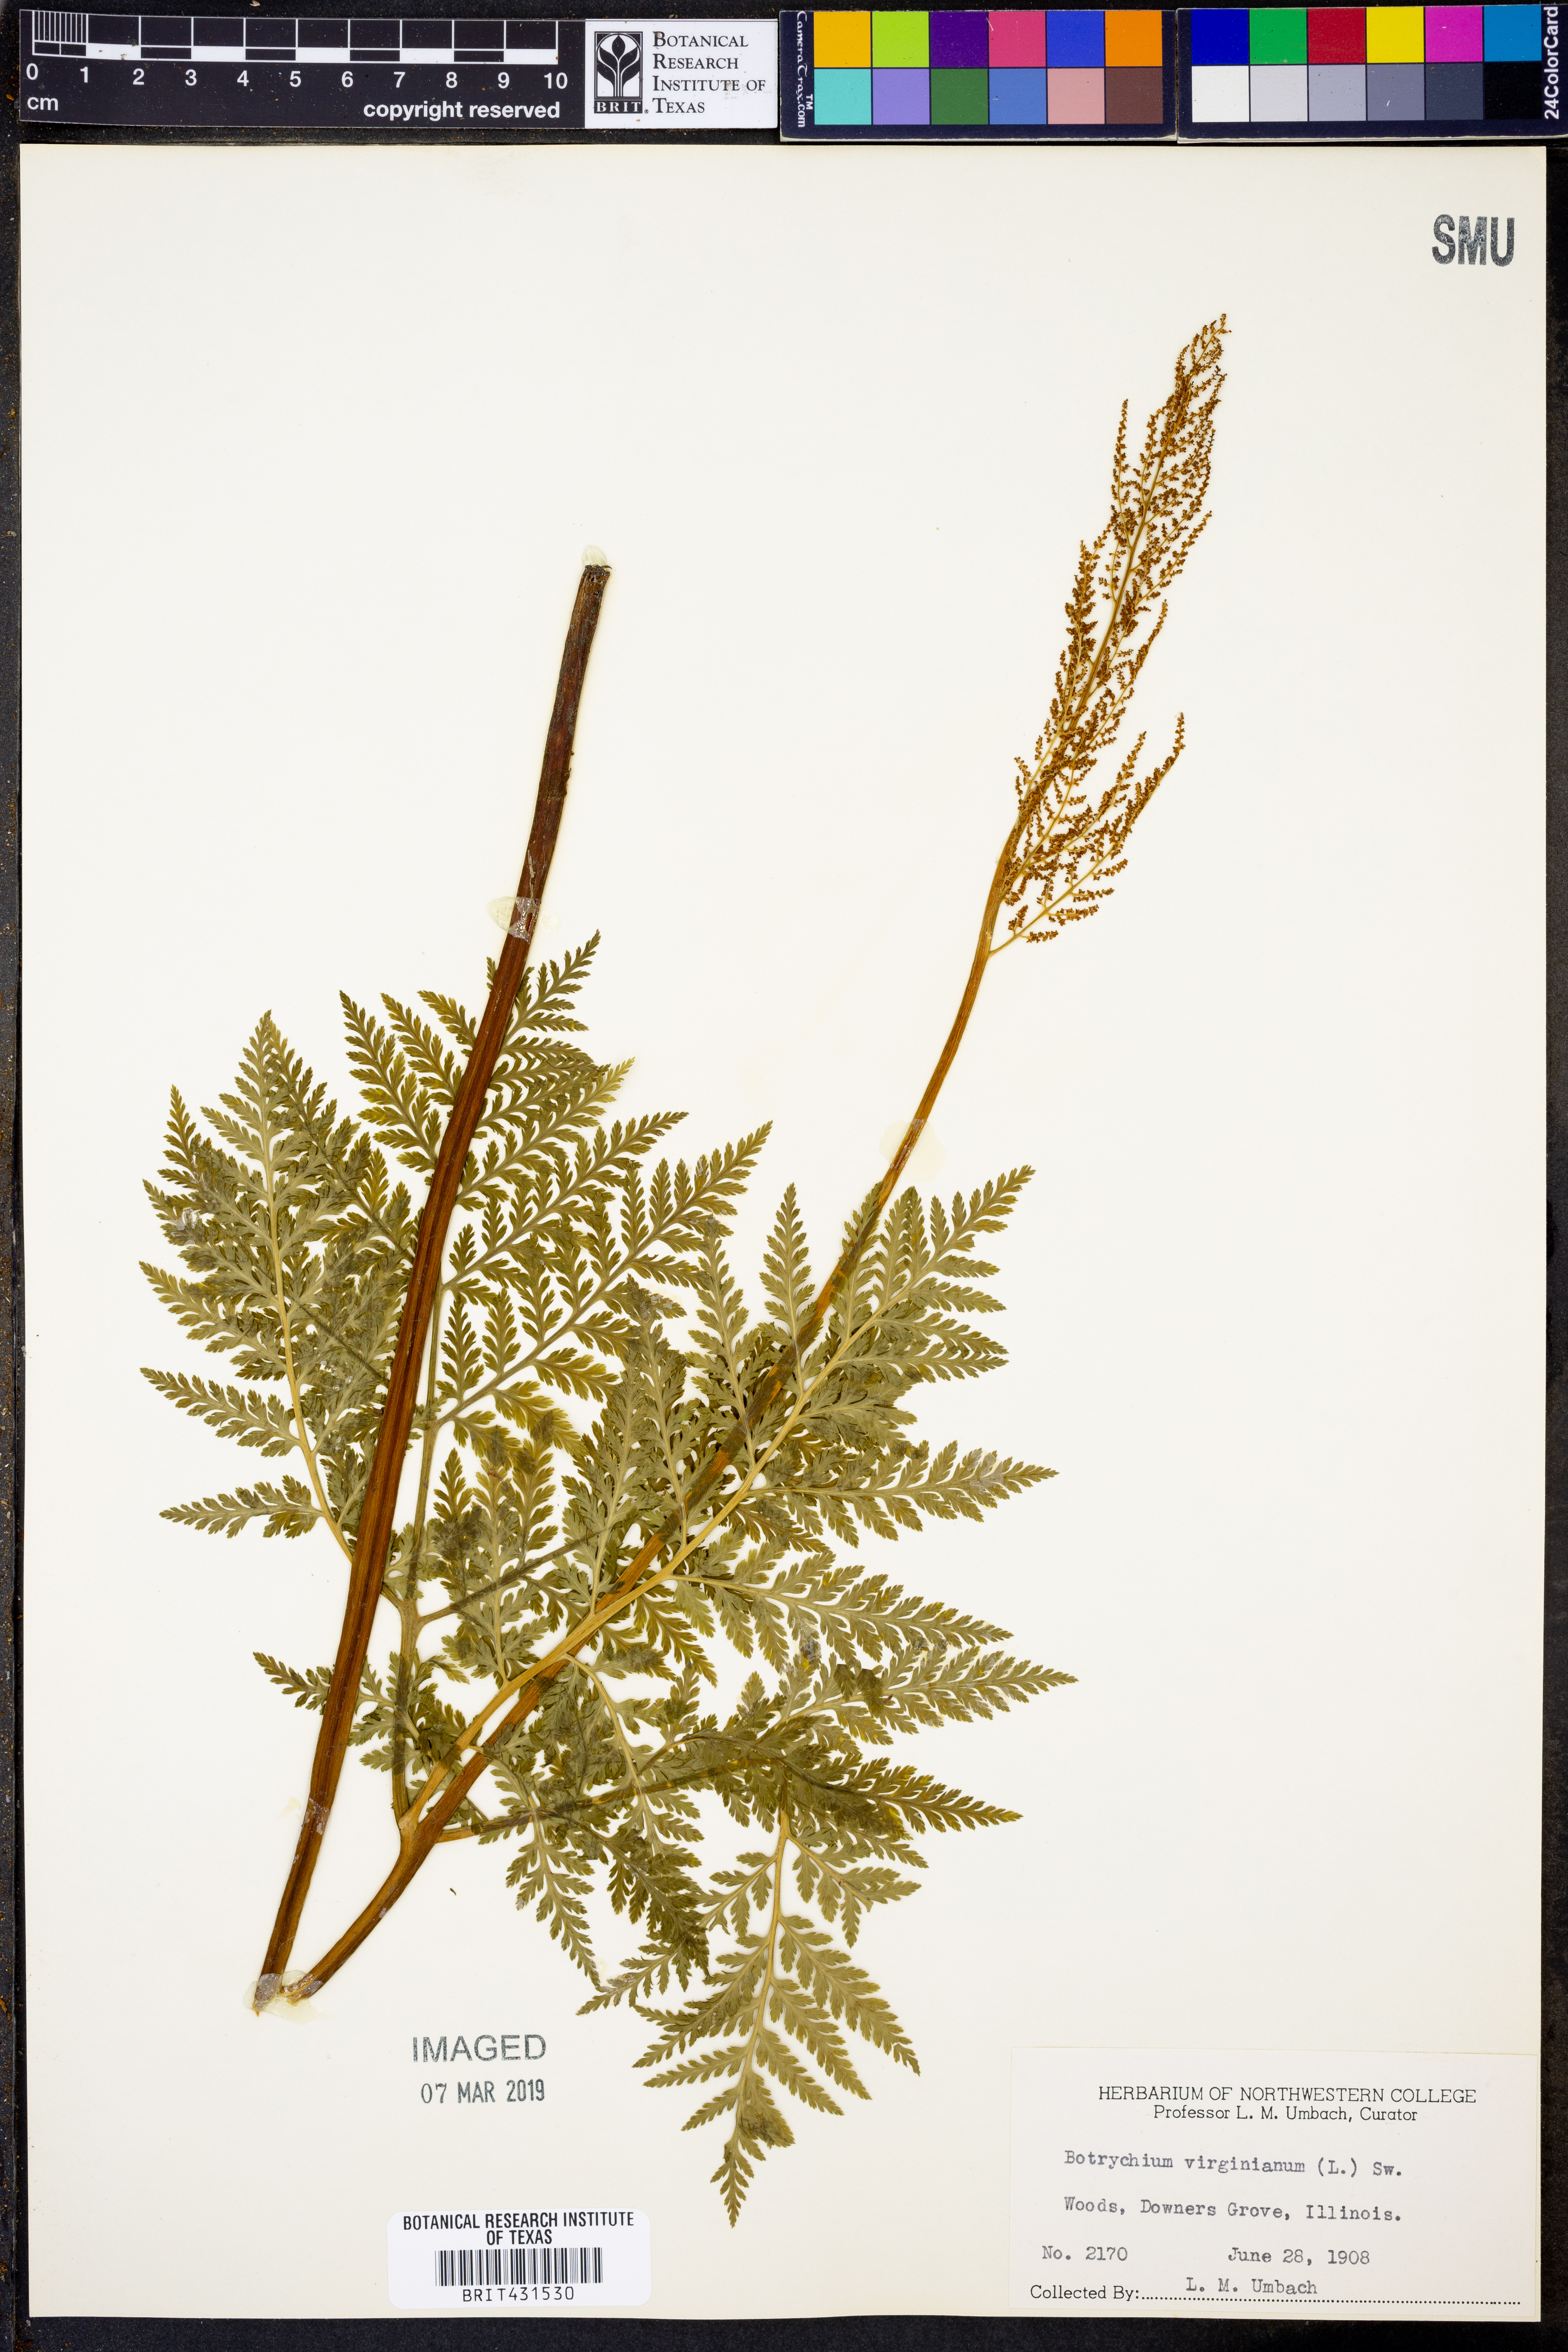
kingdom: Plantae
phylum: Tracheophyta
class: Polypodiopsida
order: Ophioglossales
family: Ophioglossaceae
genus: Botrypus
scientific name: Botrypus virginianus
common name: Common grapefern
